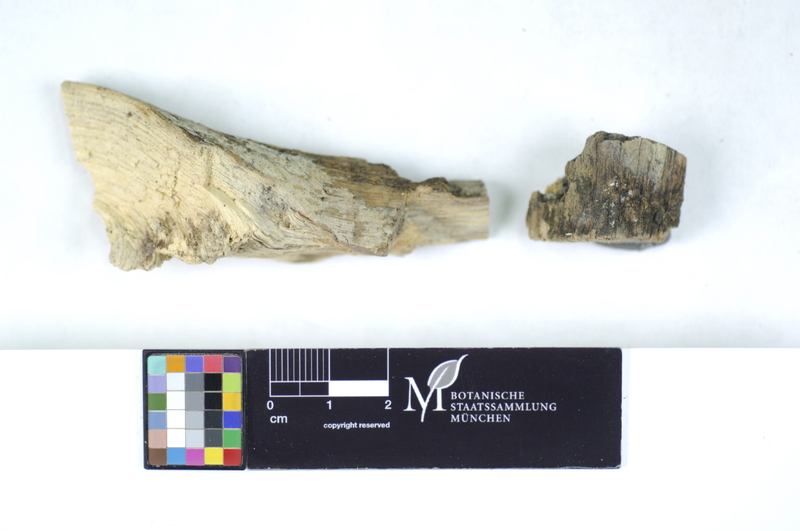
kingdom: Plantae
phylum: Tracheophyta
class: Magnoliopsida
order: Fagales
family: Fagaceae
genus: Quercus
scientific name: Quercus
